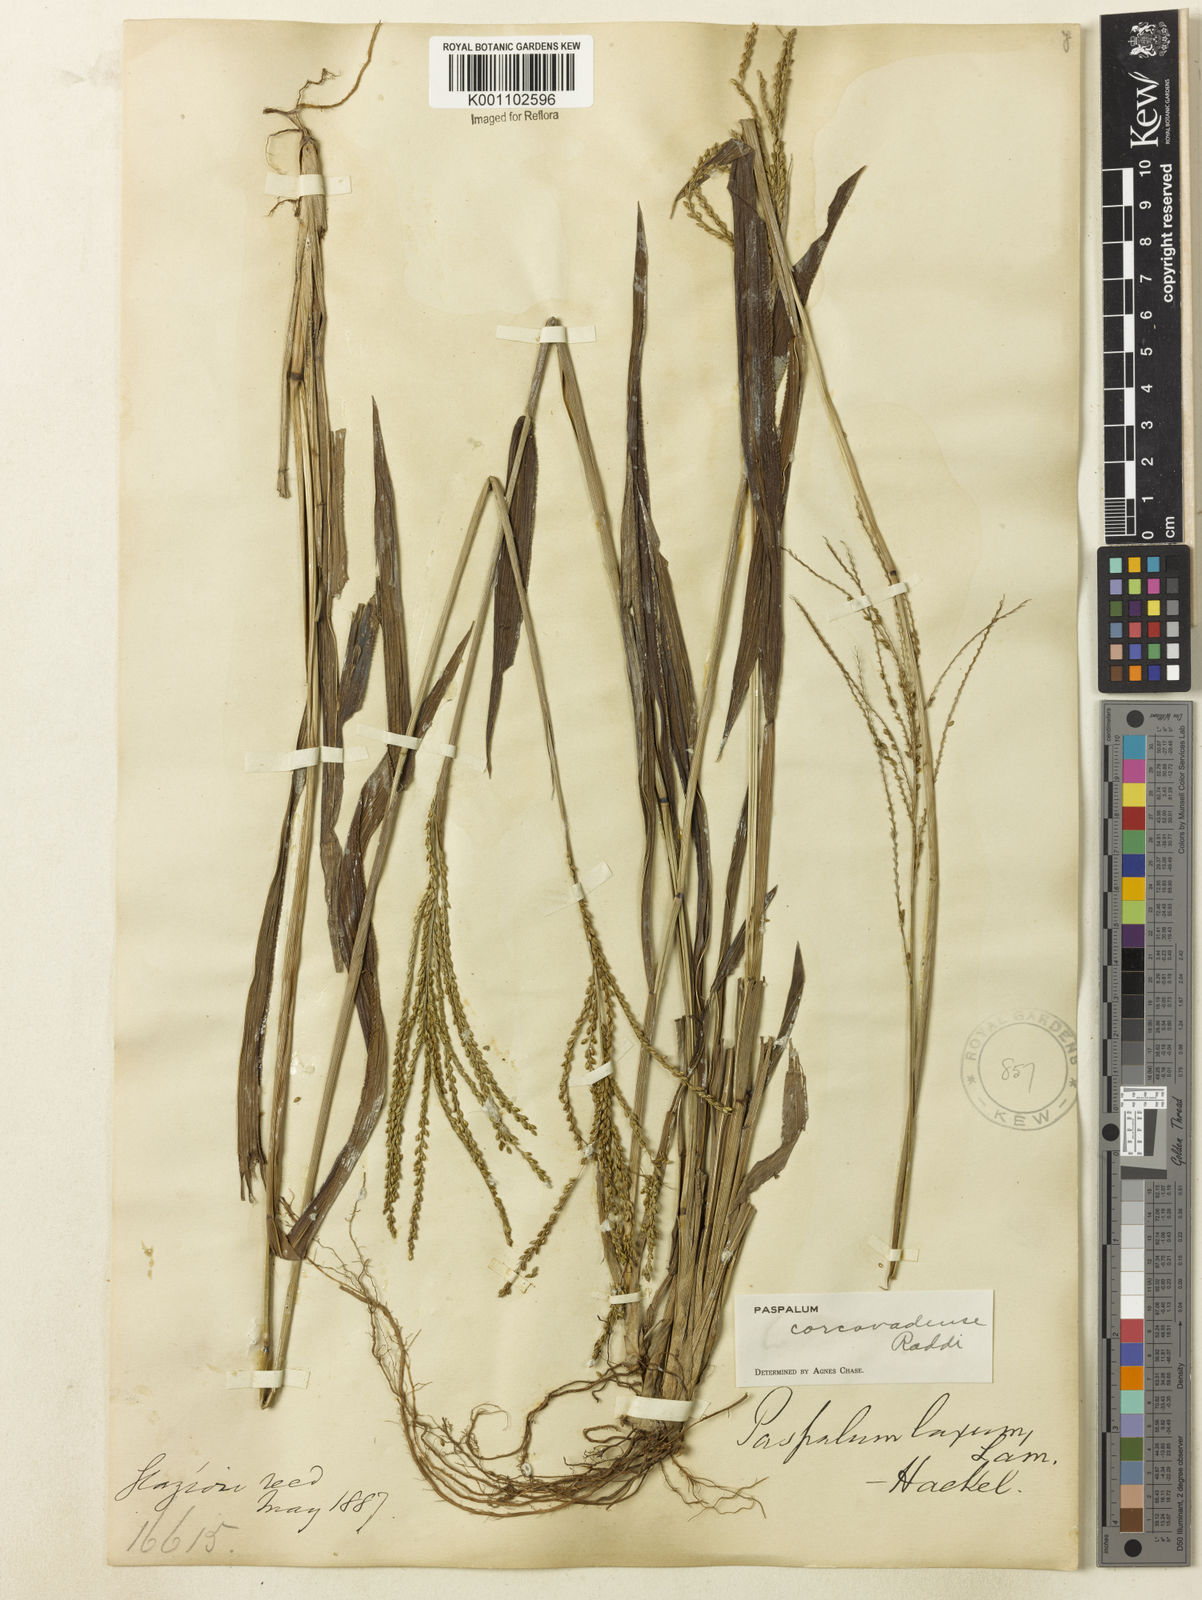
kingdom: Plantae
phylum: Tracheophyta
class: Liliopsida
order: Poales
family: Poaceae
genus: Paspalum
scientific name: Paspalum corcovadense
